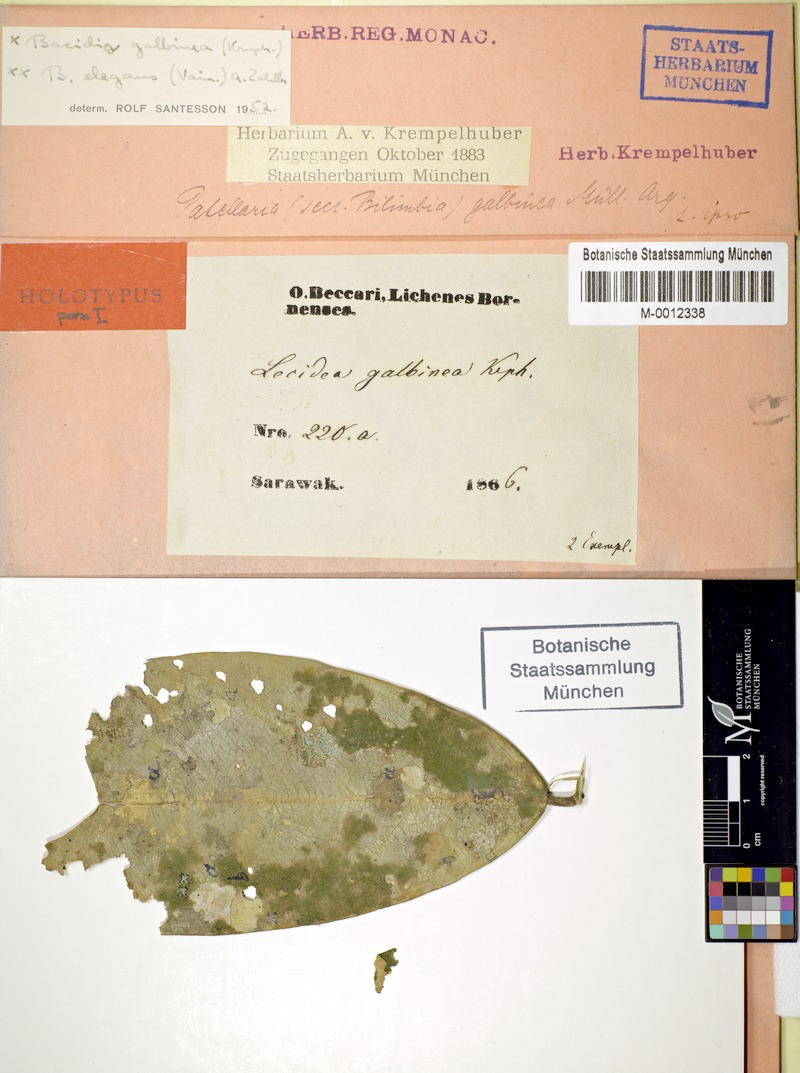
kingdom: Fungi
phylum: Ascomycota
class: Lecanoromycetes
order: Lecanorales
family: Ramalinaceae
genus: Badimia
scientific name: Badimia galbinea
